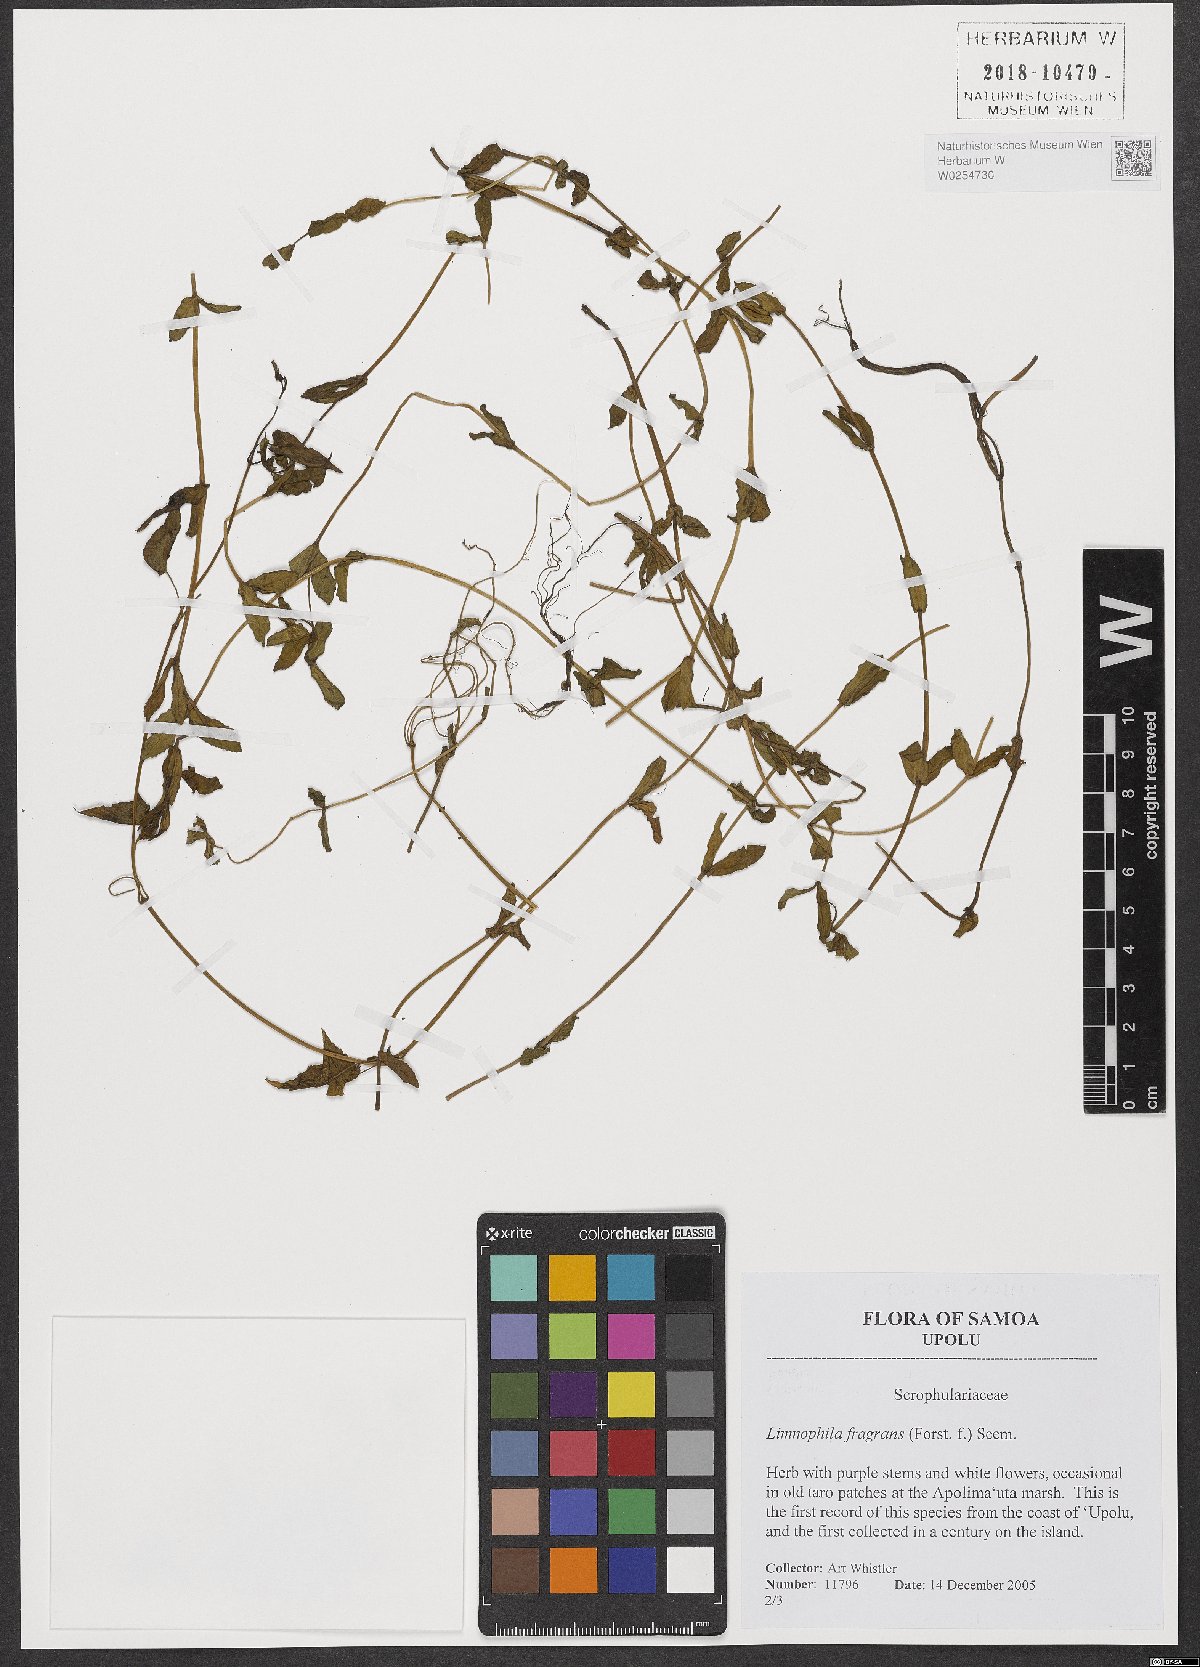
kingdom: Plantae
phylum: Tracheophyta
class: Magnoliopsida
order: Lamiales
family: Plantaginaceae
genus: Limnophila
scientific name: Limnophila fragrans
